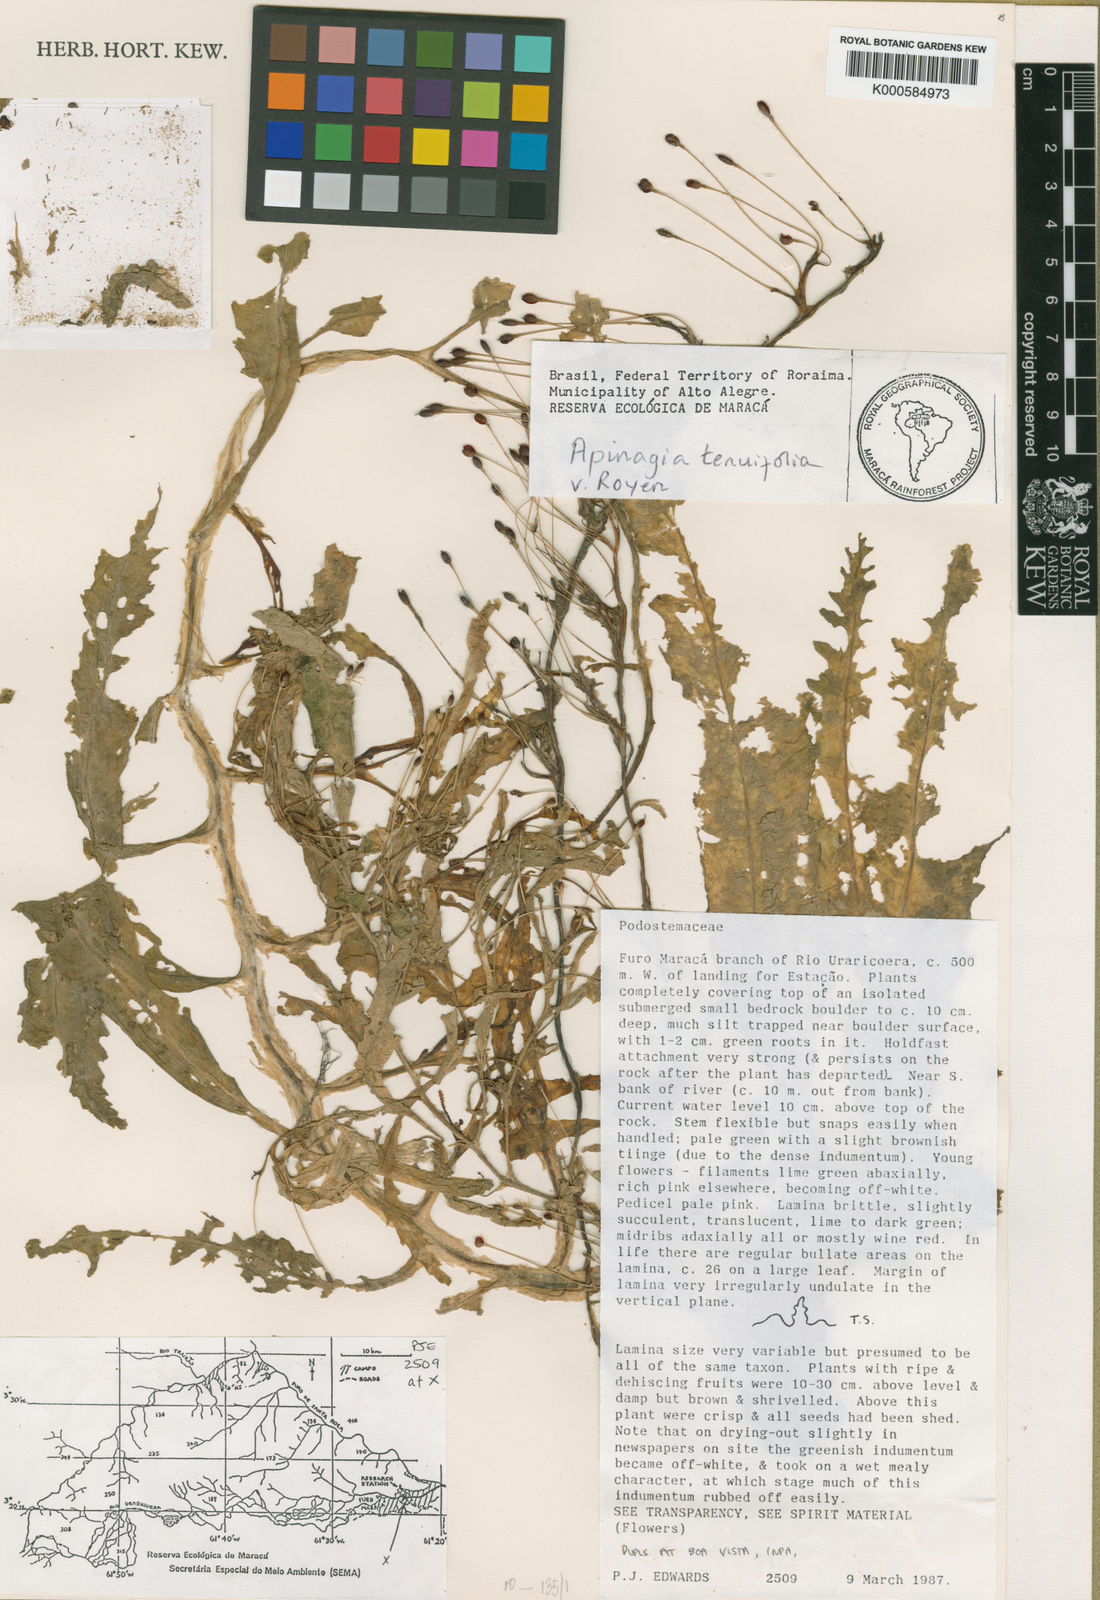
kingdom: Plantae
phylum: Tracheophyta
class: Magnoliopsida
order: Malpighiales
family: Podostemaceae
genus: Apinagia
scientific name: Apinagia tenuifolia
